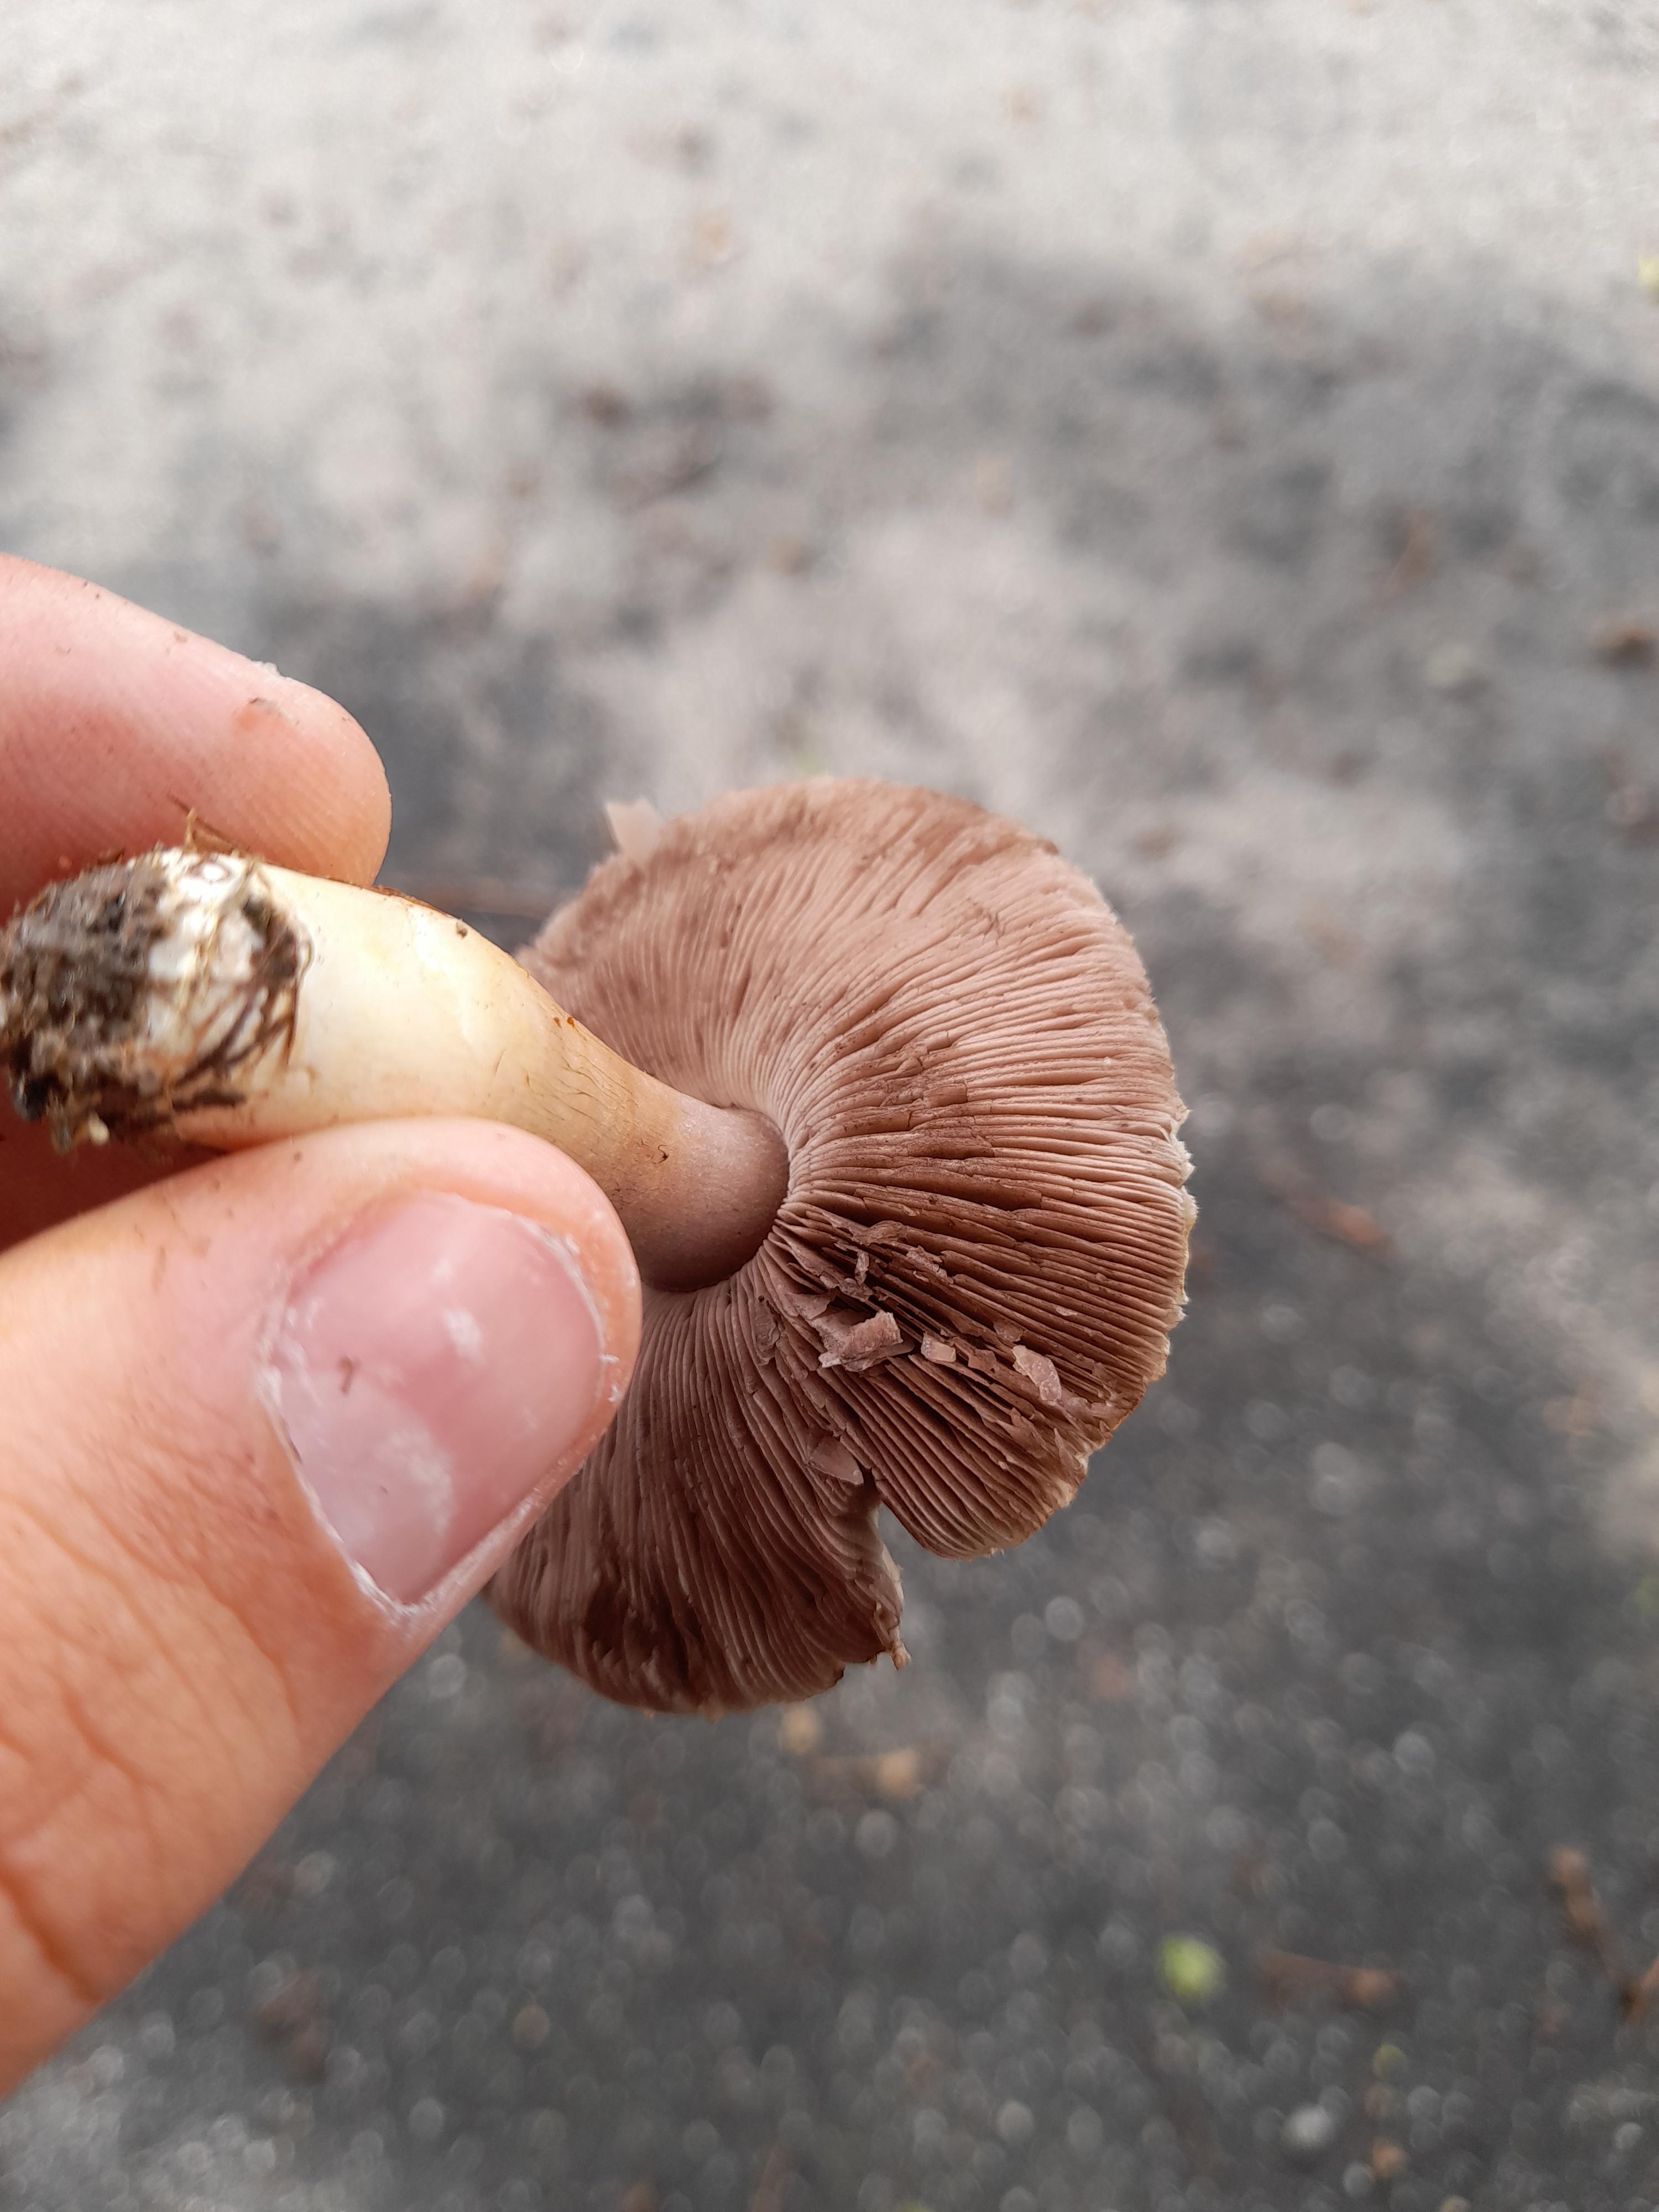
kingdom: Fungi
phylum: Basidiomycota
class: Agaricomycetes
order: Agaricales
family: Agaricaceae
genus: Agaricus
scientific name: Agaricus
